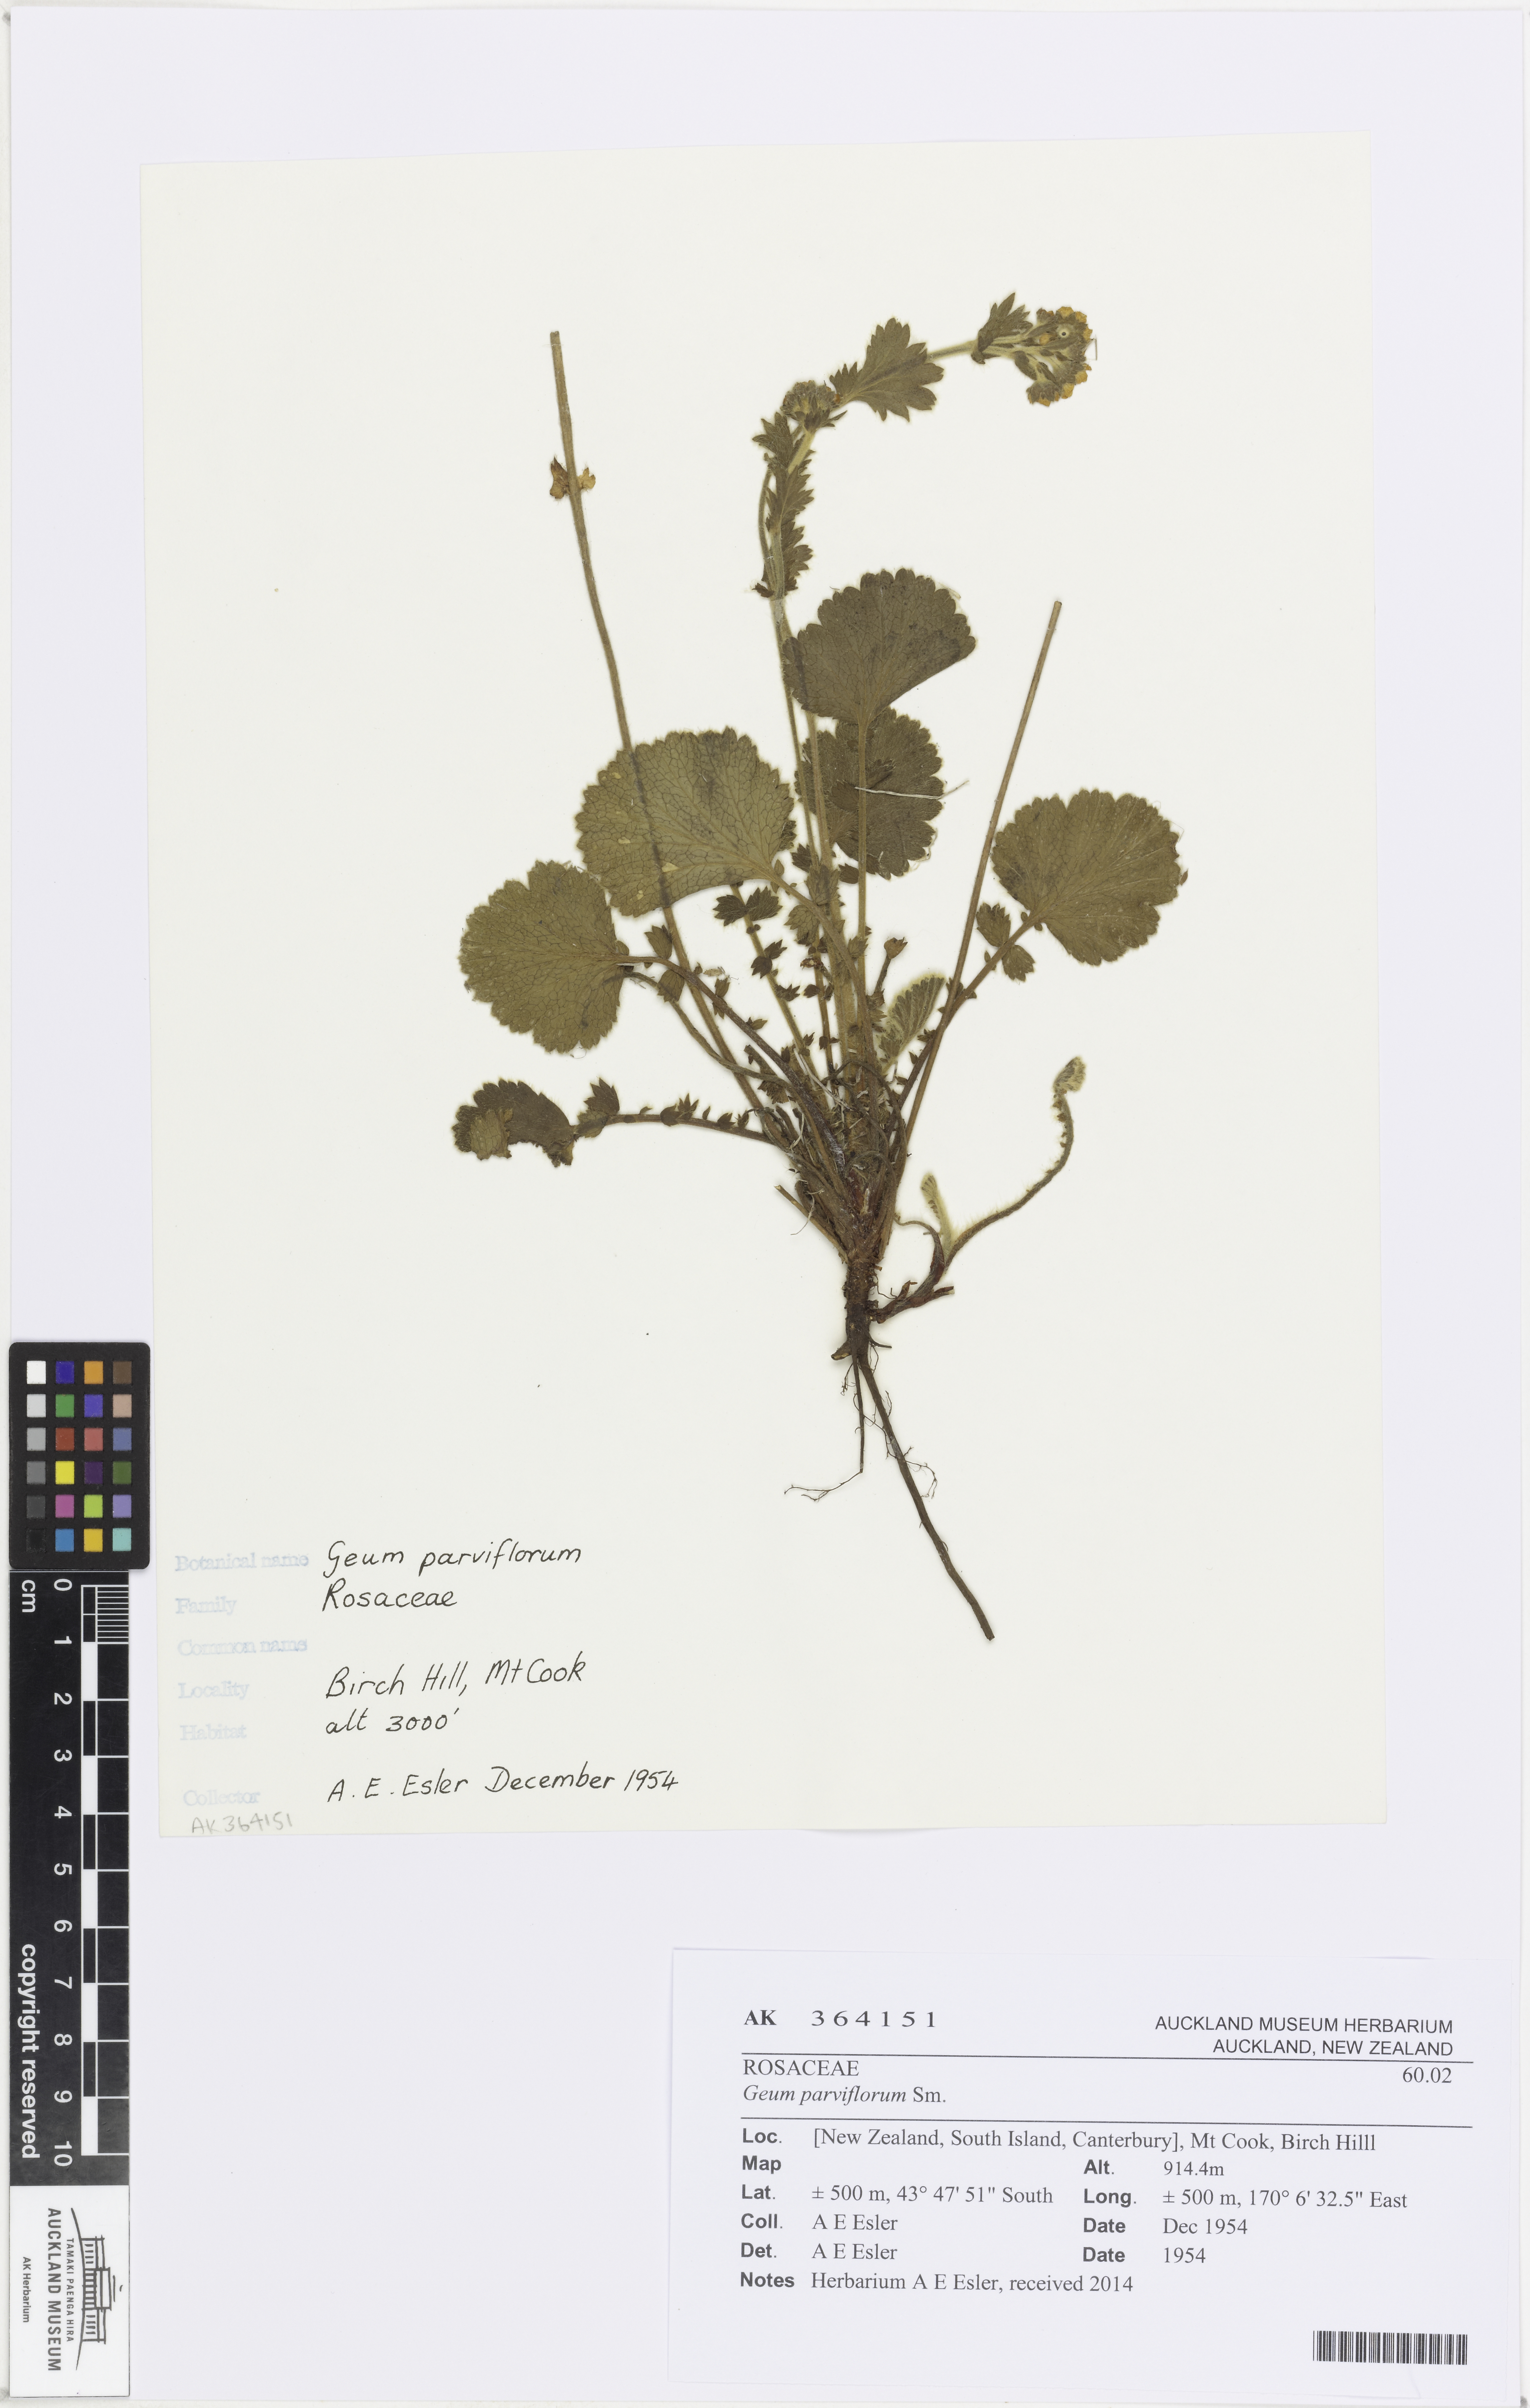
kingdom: Plantae
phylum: Tracheophyta
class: Magnoliopsida
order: Rosales
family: Rosaceae
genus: Geum
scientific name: Geum cockaynei
